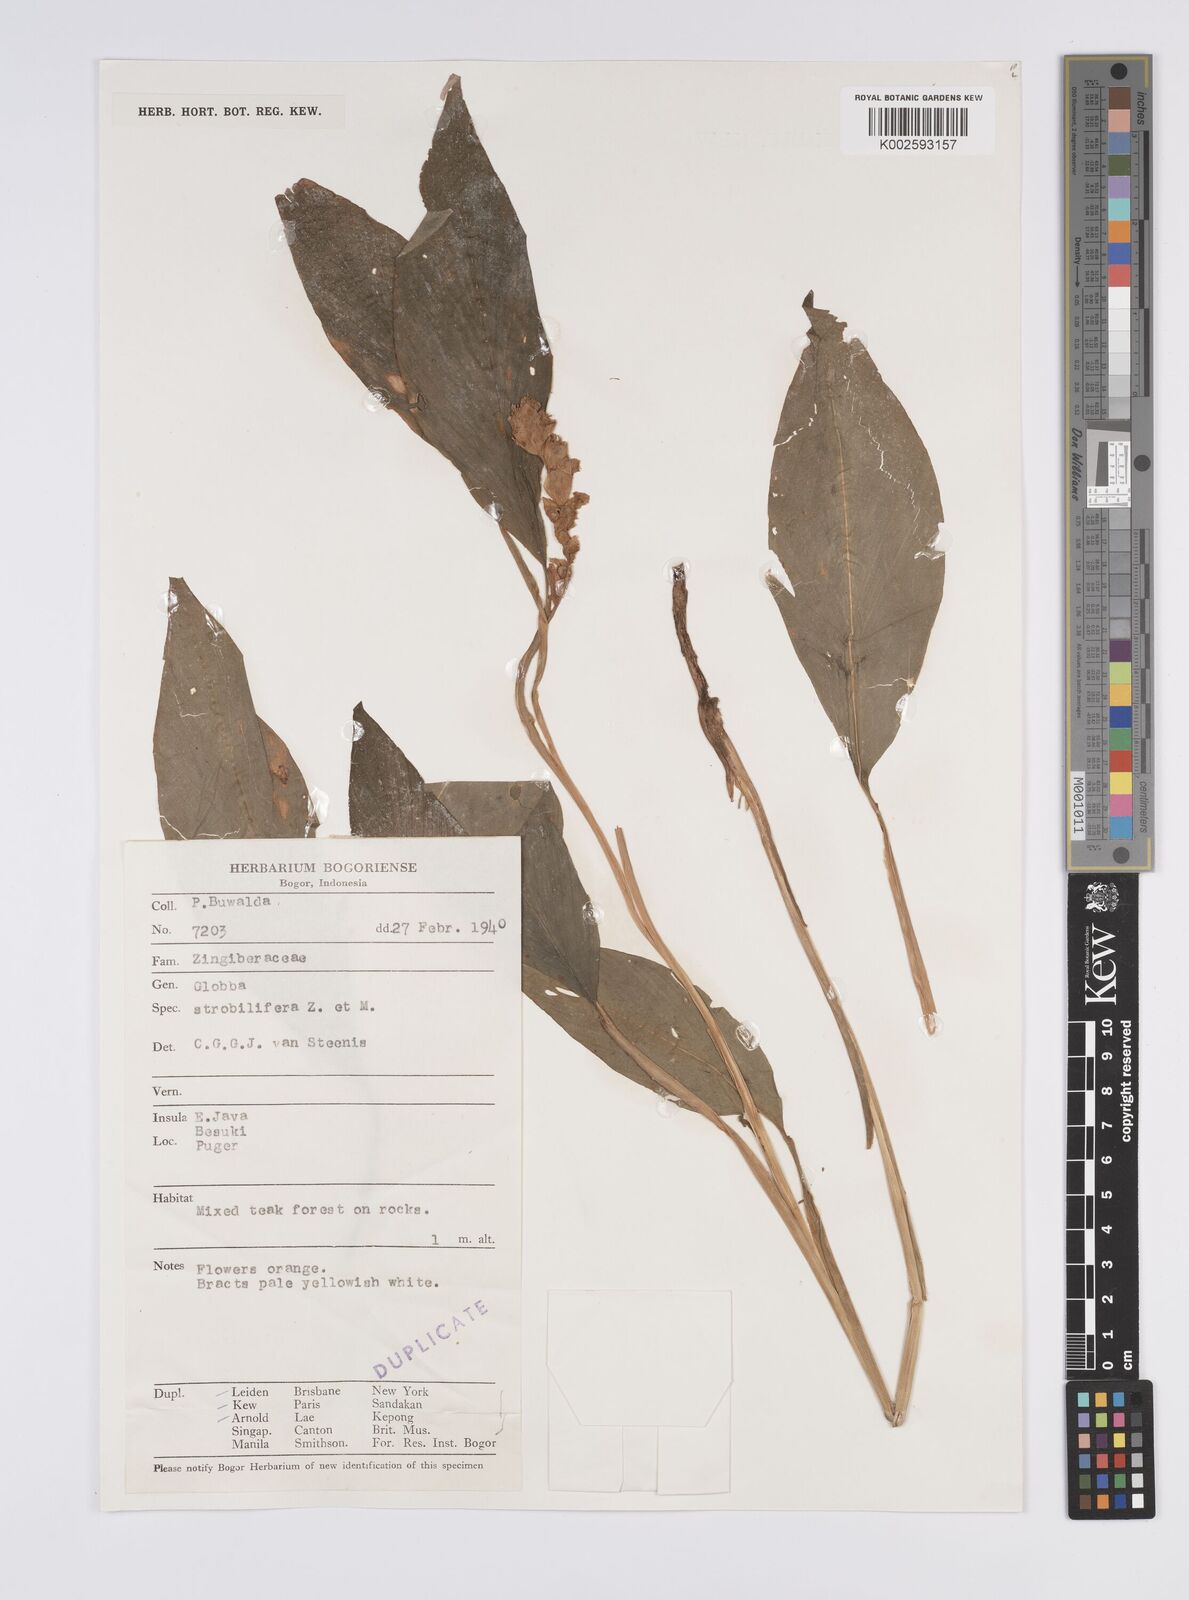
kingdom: Plantae
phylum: Tracheophyta
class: Liliopsida
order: Zingiberales
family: Zingiberaceae
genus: Globba
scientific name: Globba marantina
